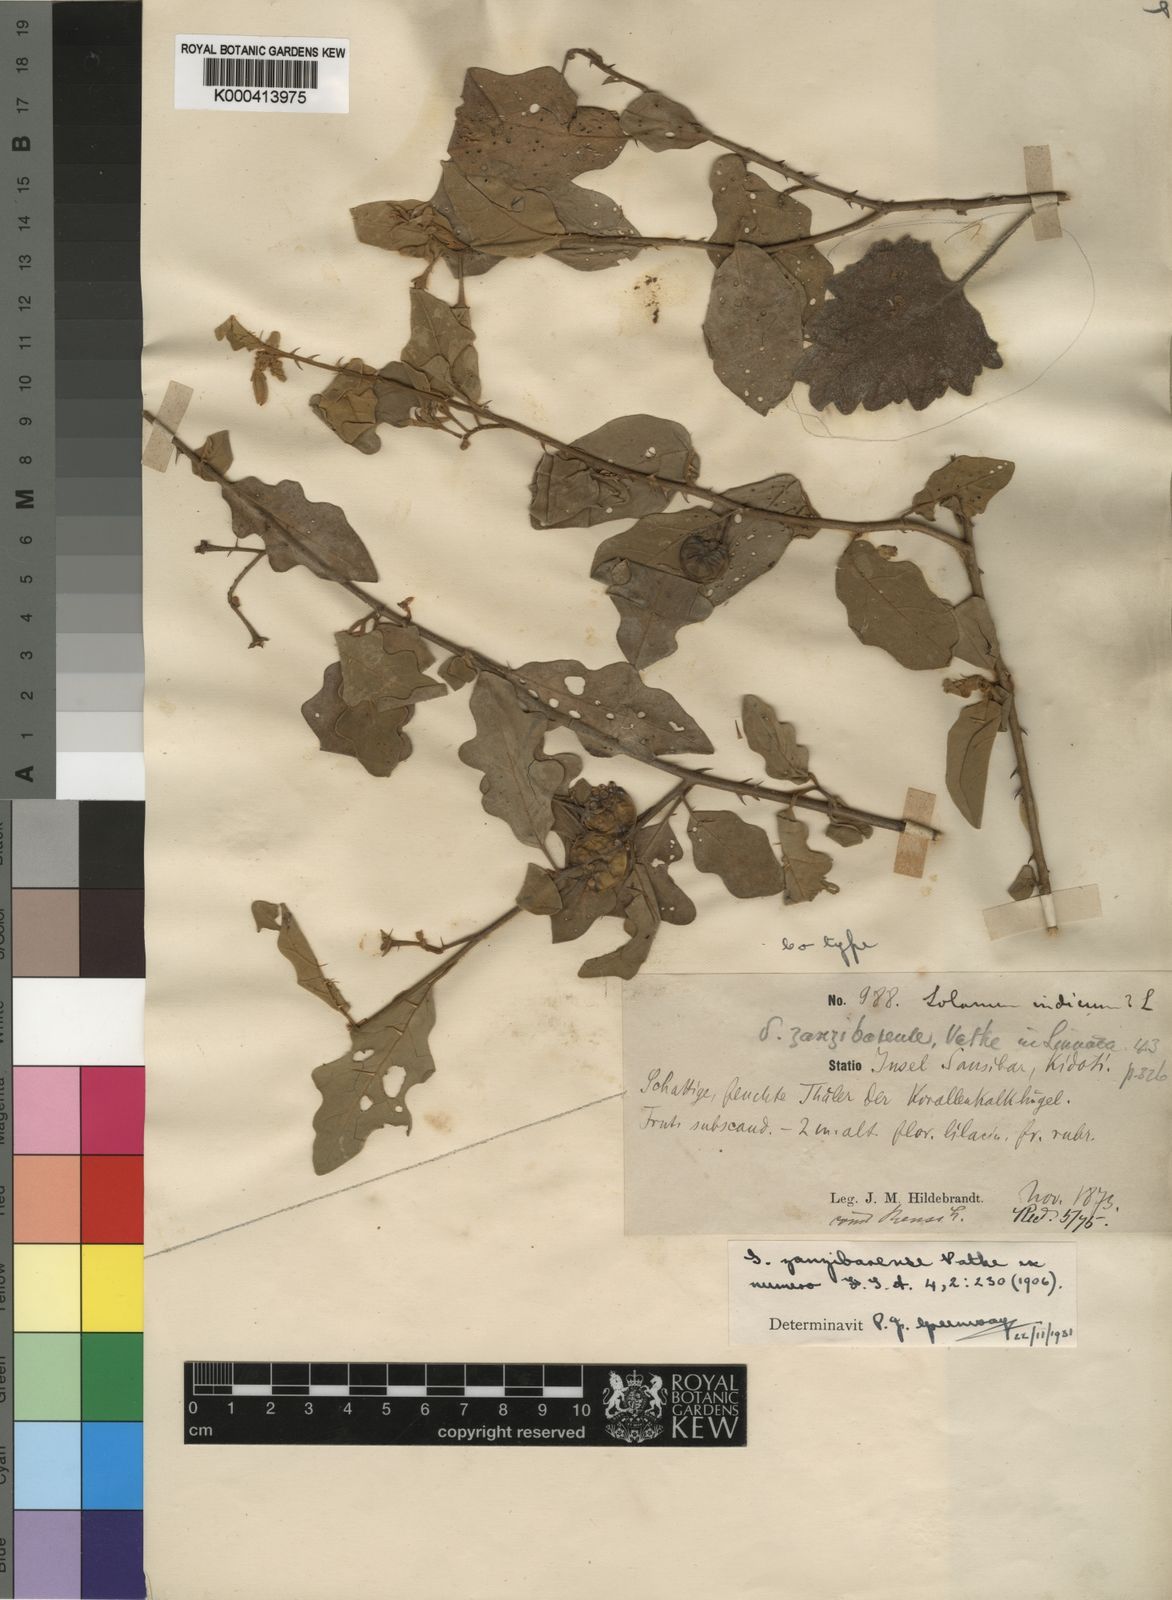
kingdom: Plantae
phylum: Tracheophyta
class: Magnoliopsida
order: Solanales
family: Solanaceae
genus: Solanum
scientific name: Solanum zanzibarense
